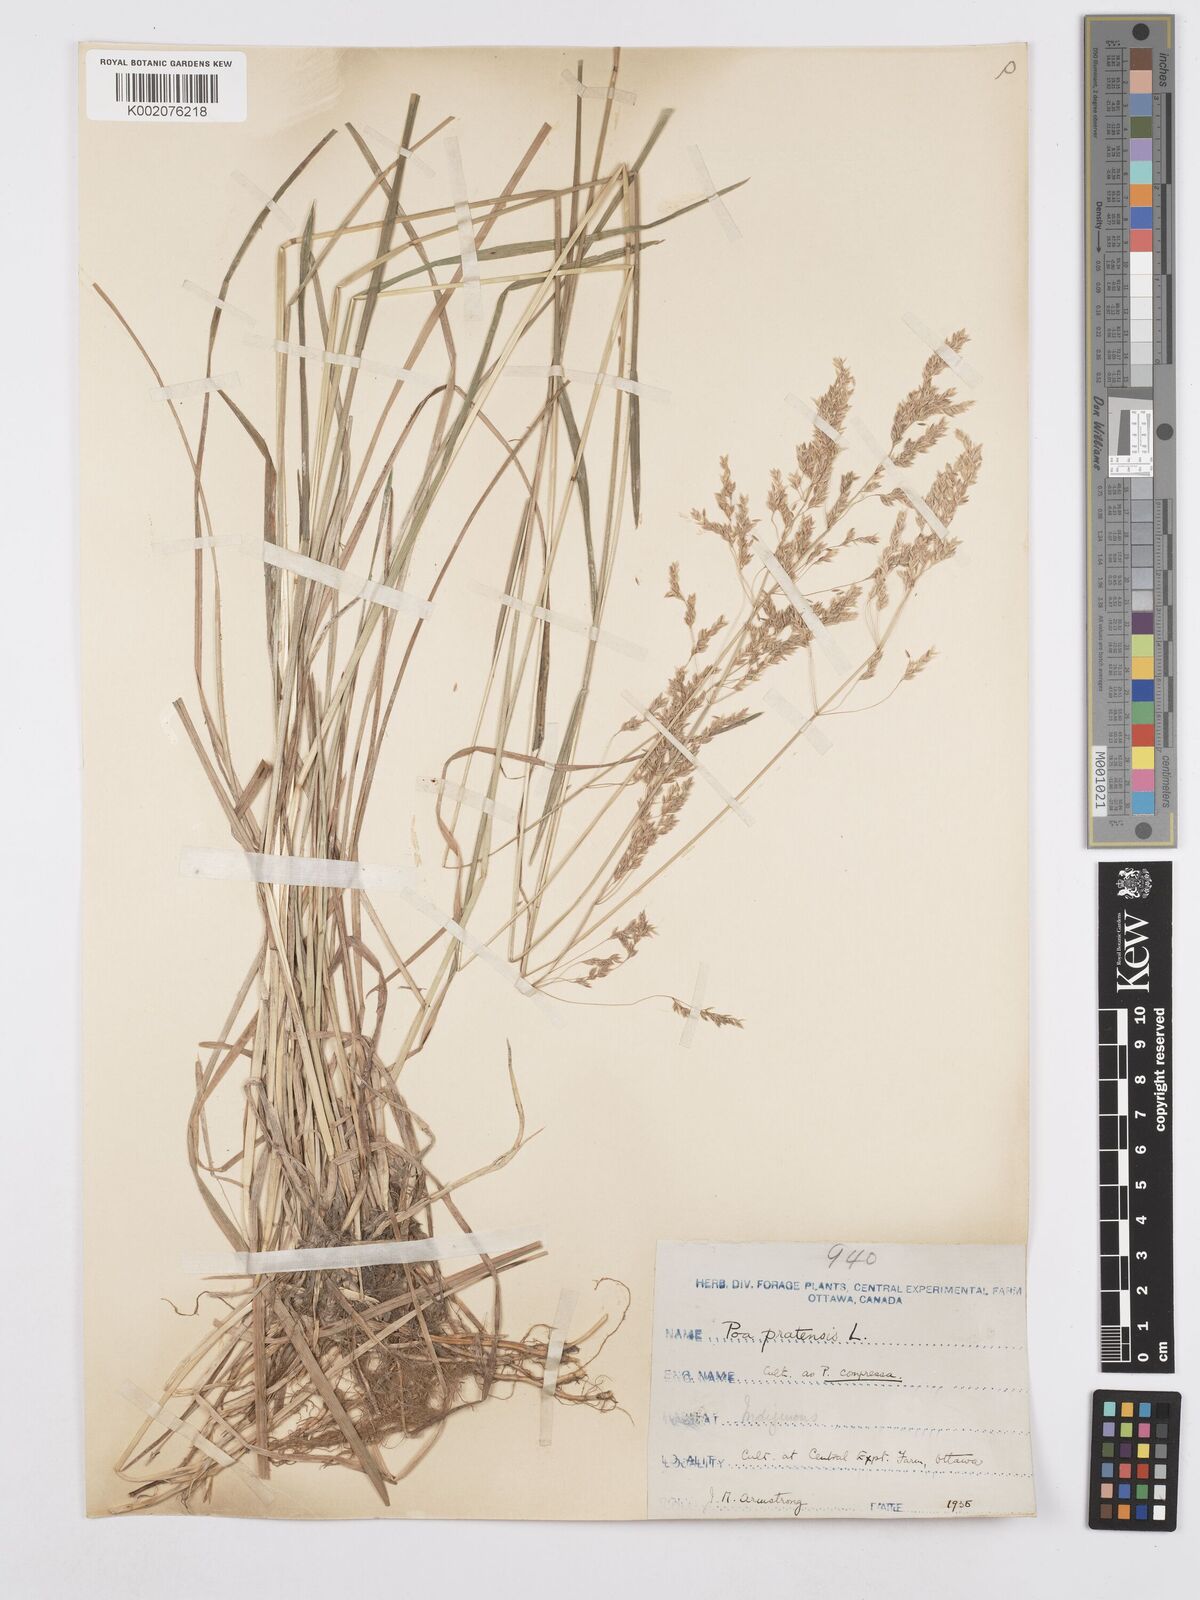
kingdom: Plantae
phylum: Tracheophyta
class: Liliopsida
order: Poales
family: Poaceae
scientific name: Poaceae
